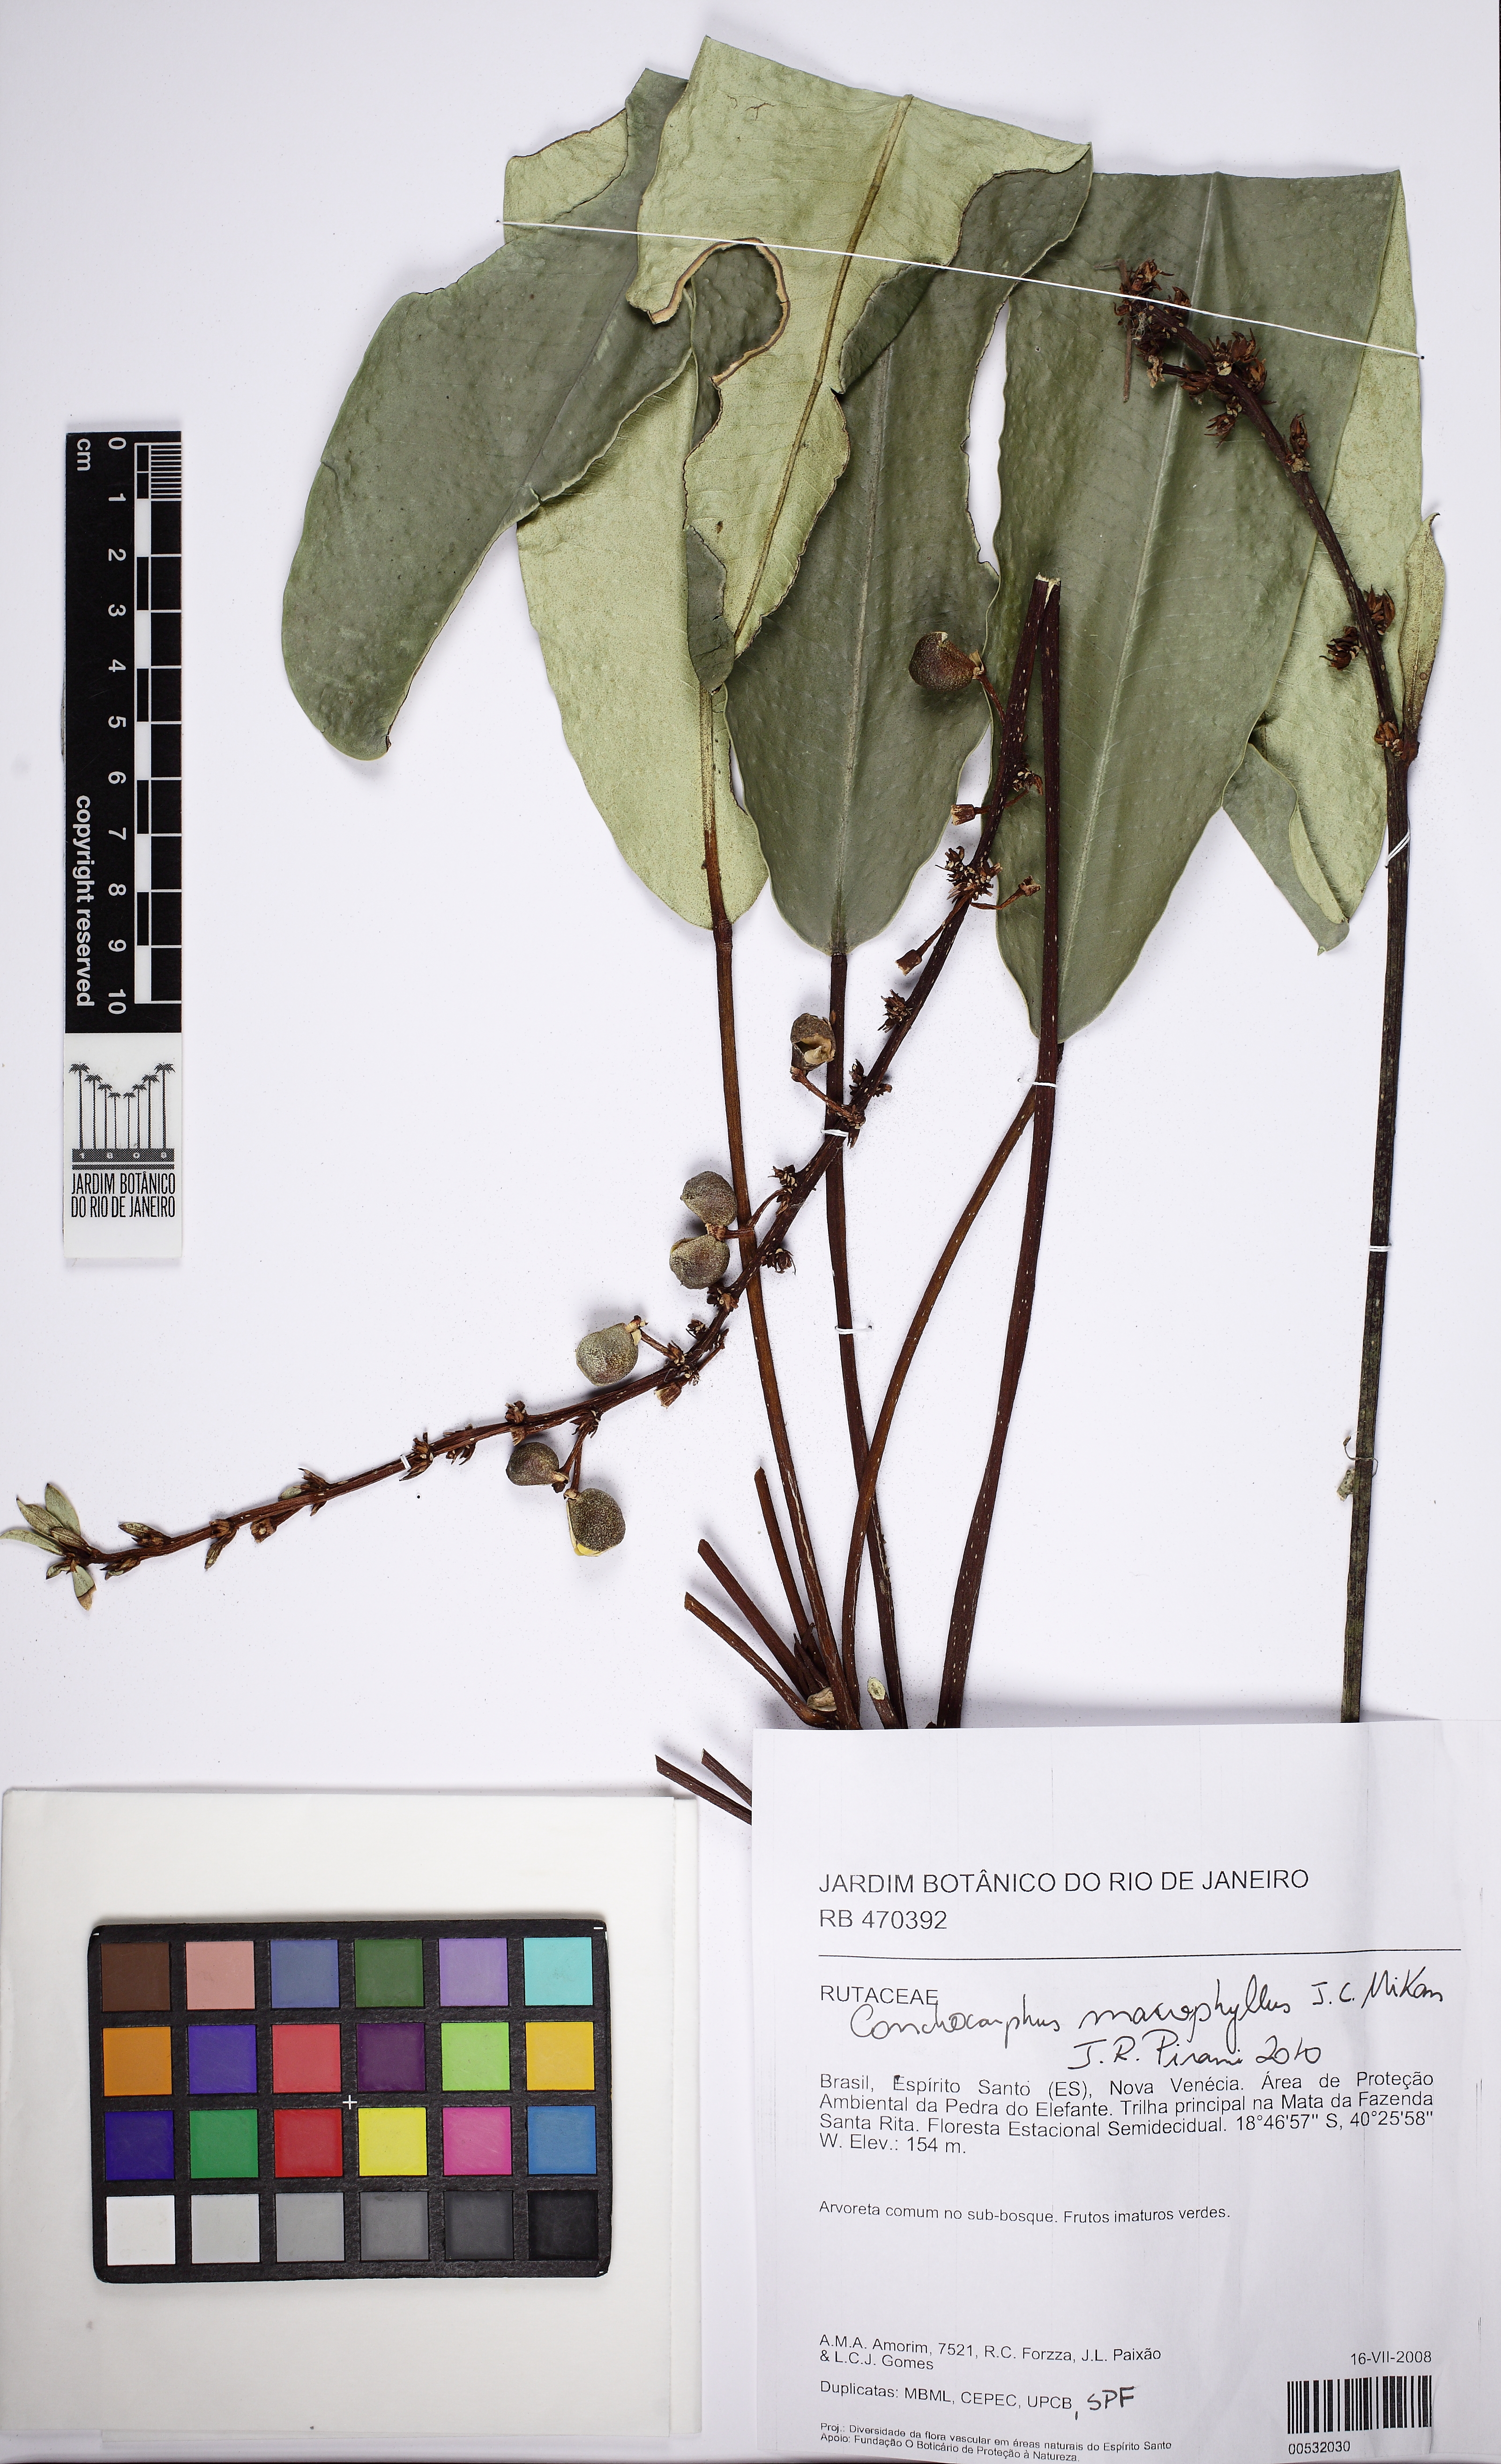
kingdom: Plantae
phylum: Tracheophyta
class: Magnoliopsida
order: Sapindales
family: Rutaceae
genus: Conchocarpus
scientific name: Conchocarpus macrophyllus
